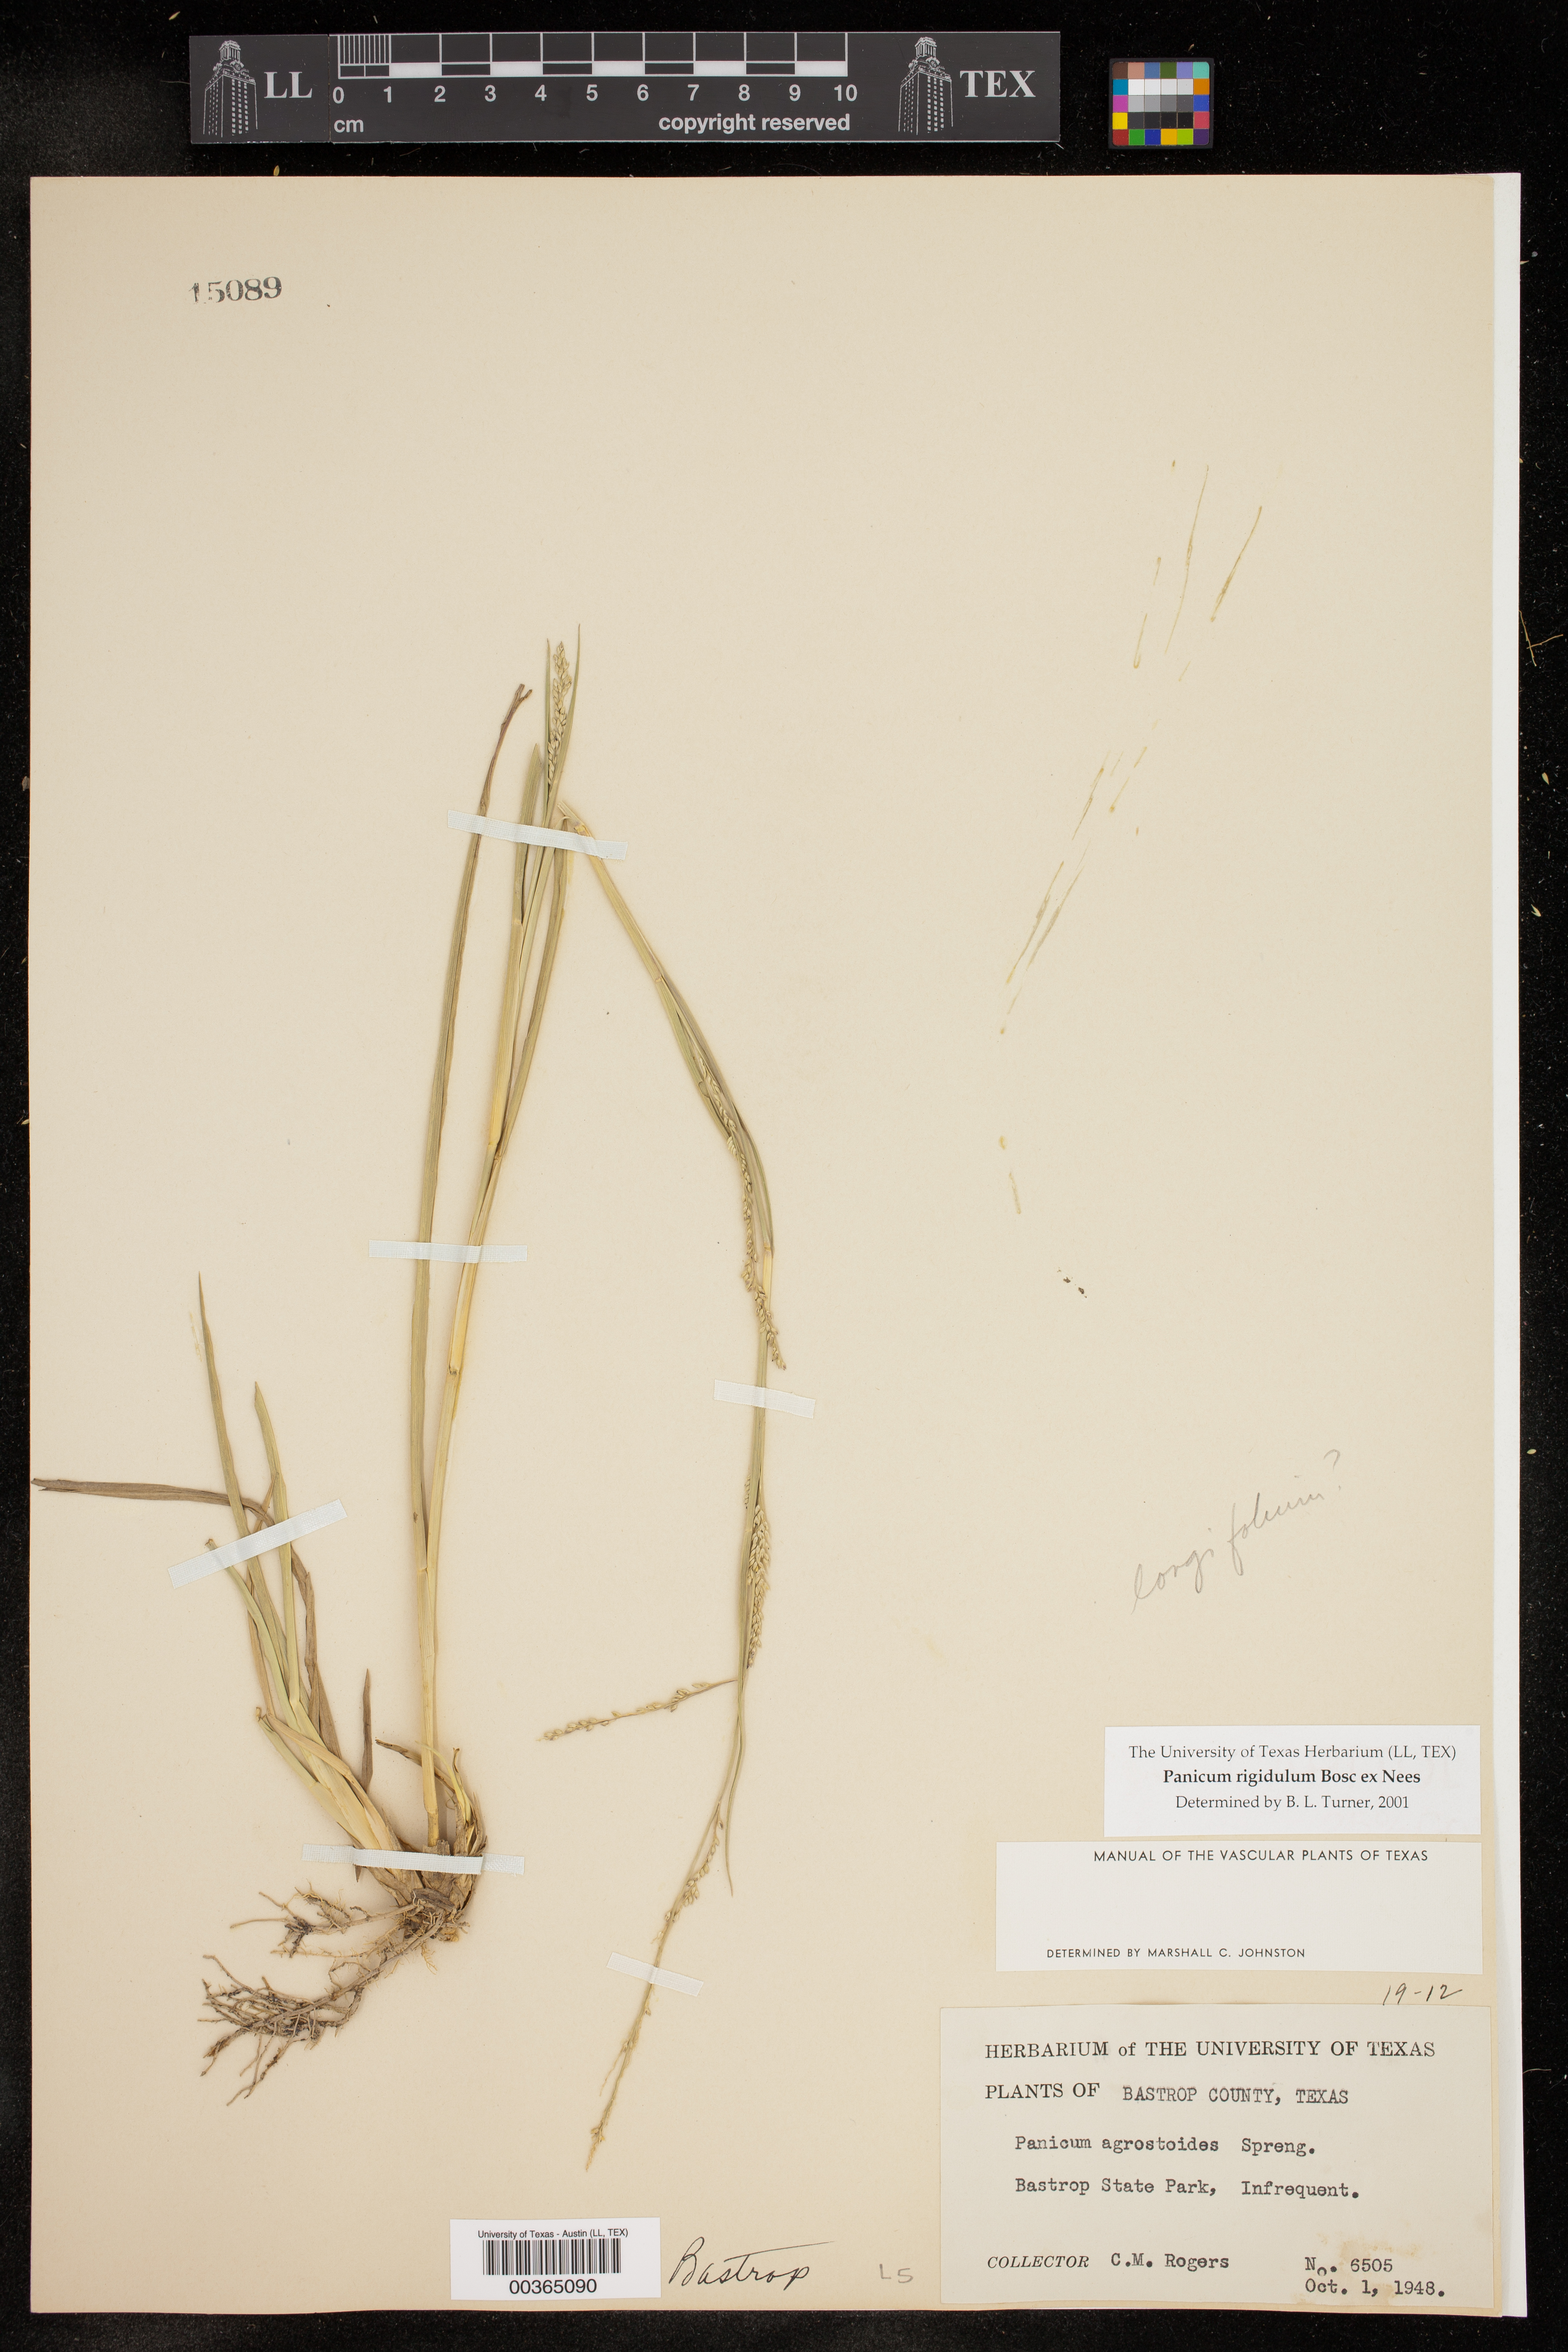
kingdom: Plantae
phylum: Tracheophyta
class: Liliopsida
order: Poales
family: Poaceae
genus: Coleataenia
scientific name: Coleataenia rigidula
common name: Redtop panicgrass
